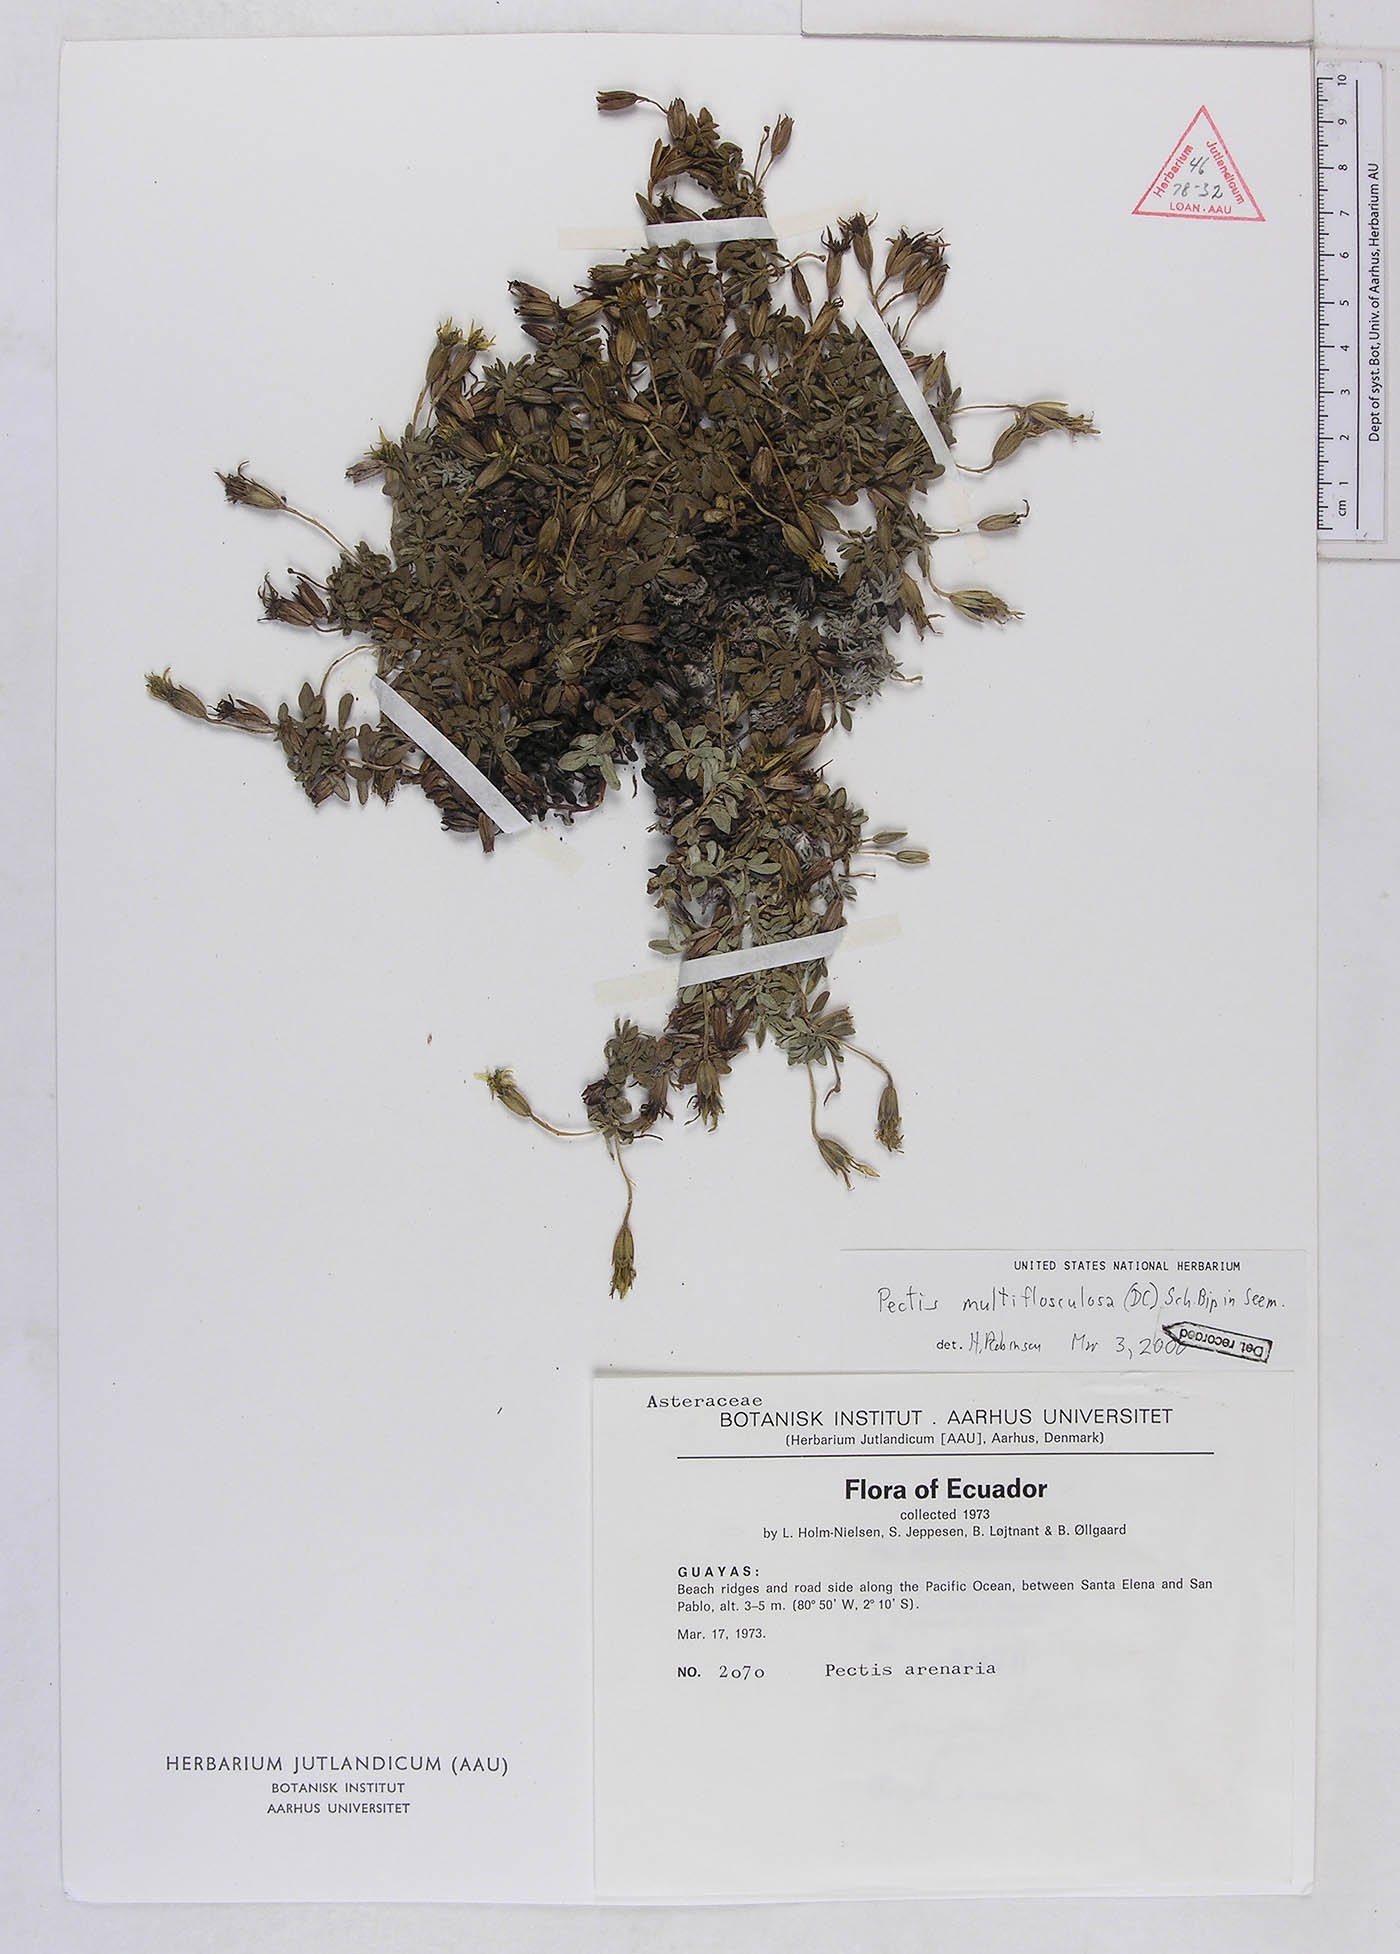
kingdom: Plantae
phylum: Tracheophyta
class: Magnoliopsida
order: Asterales
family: Asteraceae
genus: Pectis
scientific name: Pectis multiflosculosa
